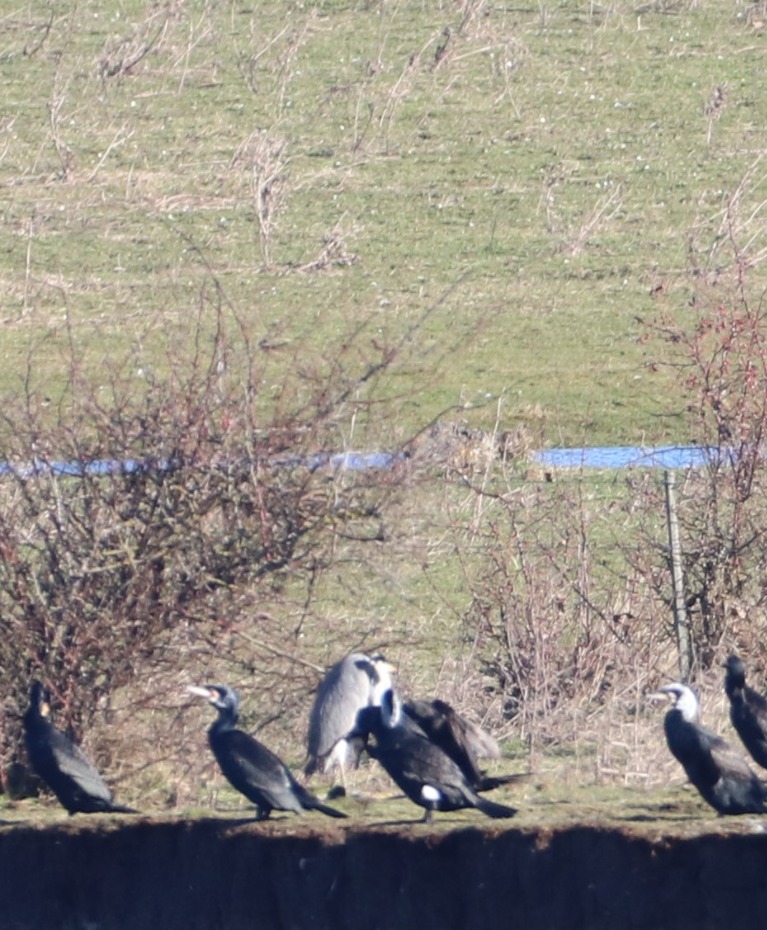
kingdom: Animalia
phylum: Chordata
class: Aves
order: Pelecaniformes
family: Ardeidae
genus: Ardea
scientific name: Ardea cinerea
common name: Fiskehejre
